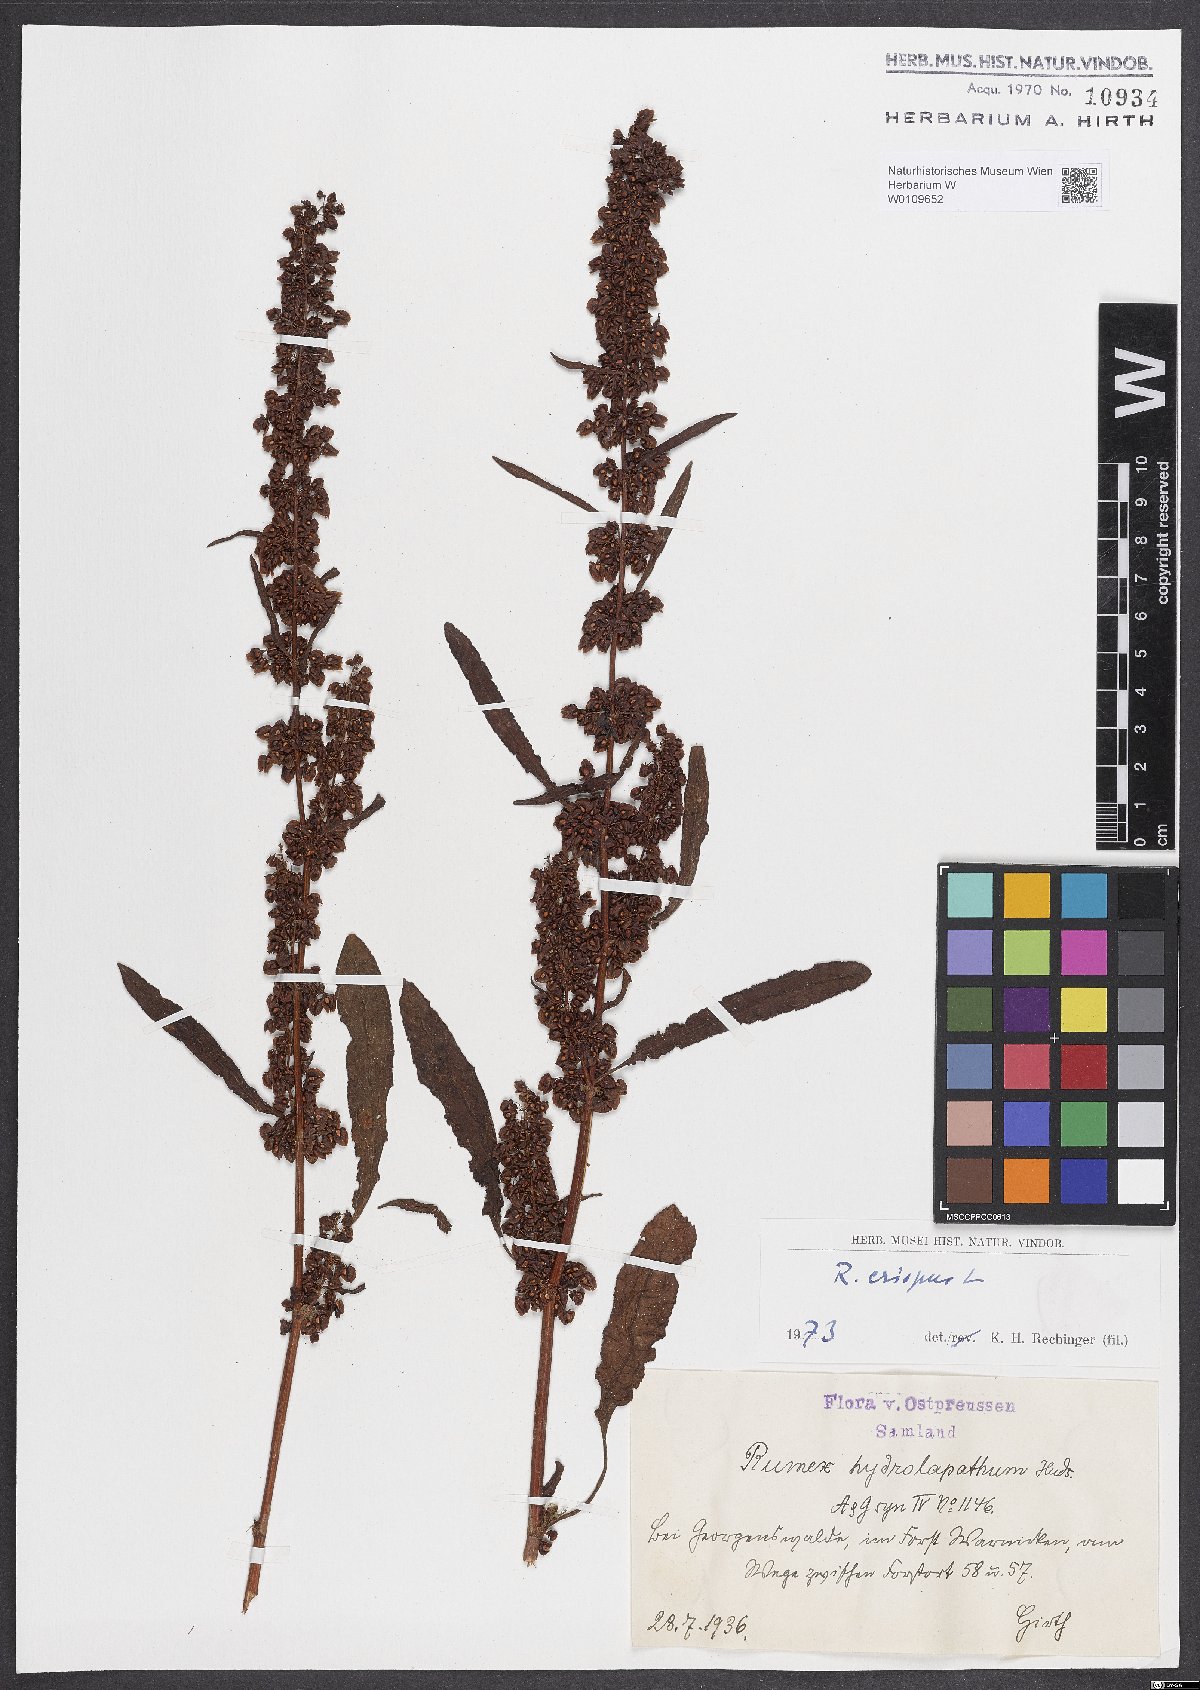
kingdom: Plantae
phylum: Tracheophyta
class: Magnoliopsida
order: Caryophyllales
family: Polygonaceae
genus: Rumex
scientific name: Rumex crispus
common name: Curled dock
